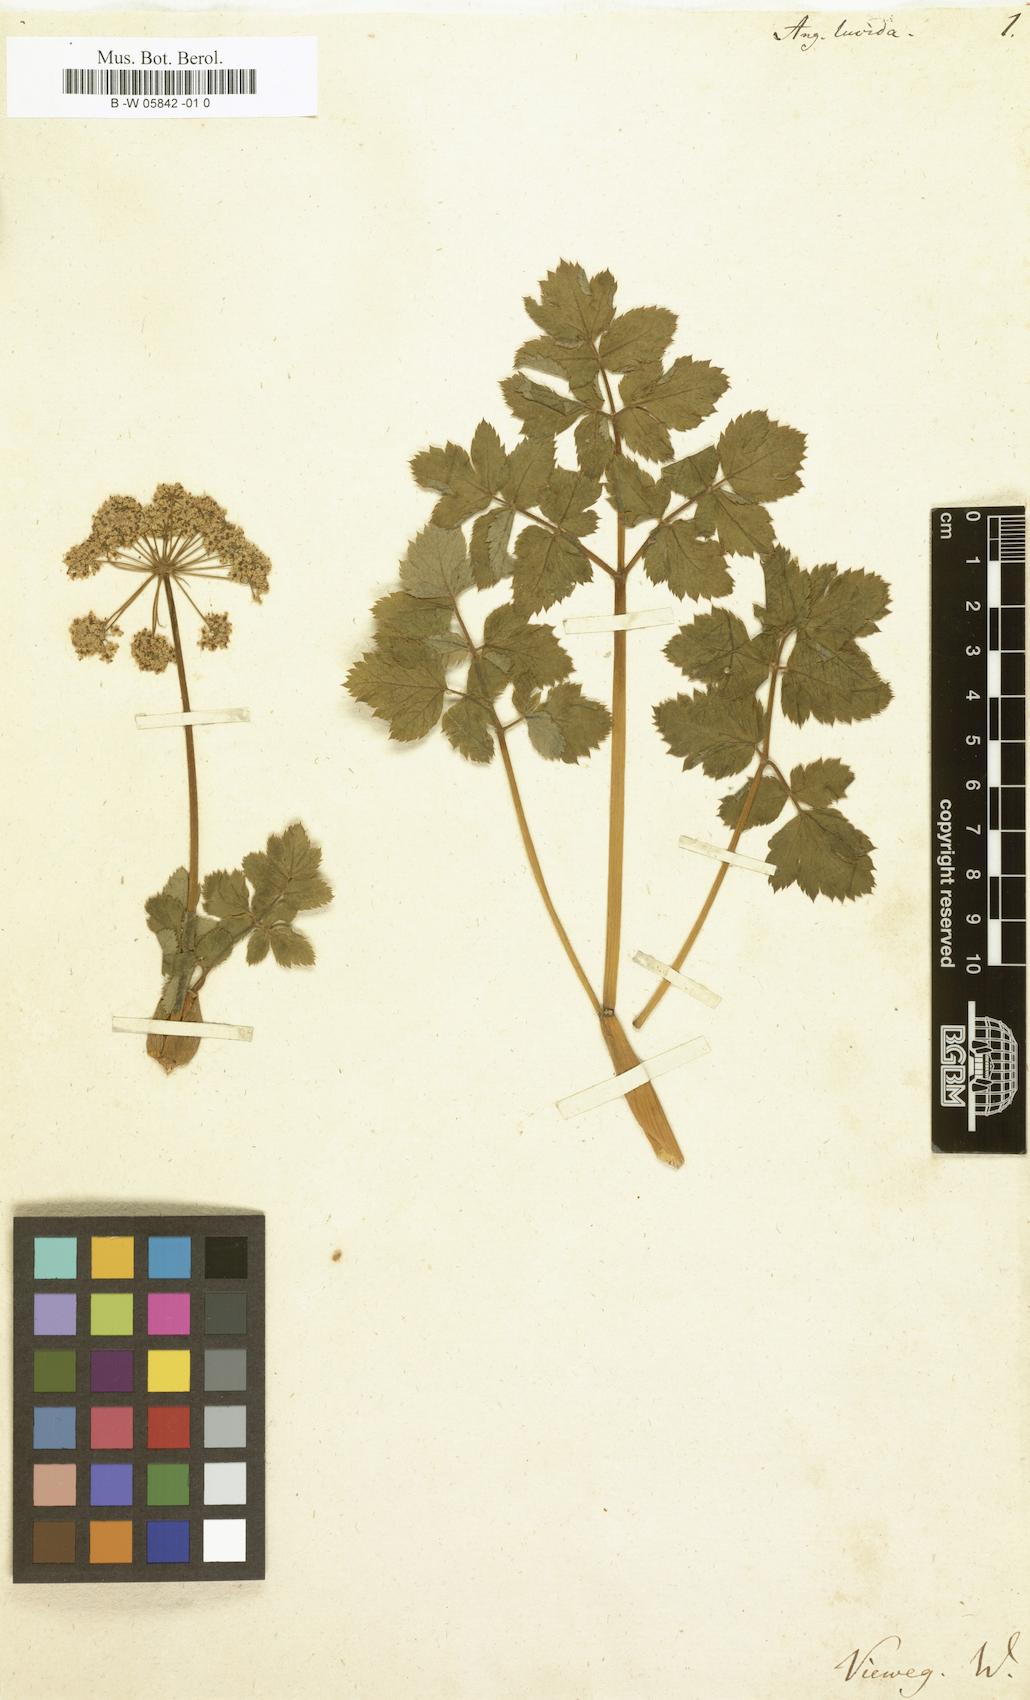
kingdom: Plantae
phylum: Tracheophyta
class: Magnoliopsida
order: Apiales
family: Apiaceae
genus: Angelica
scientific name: Angelica lucida
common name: Seabeach angelica
